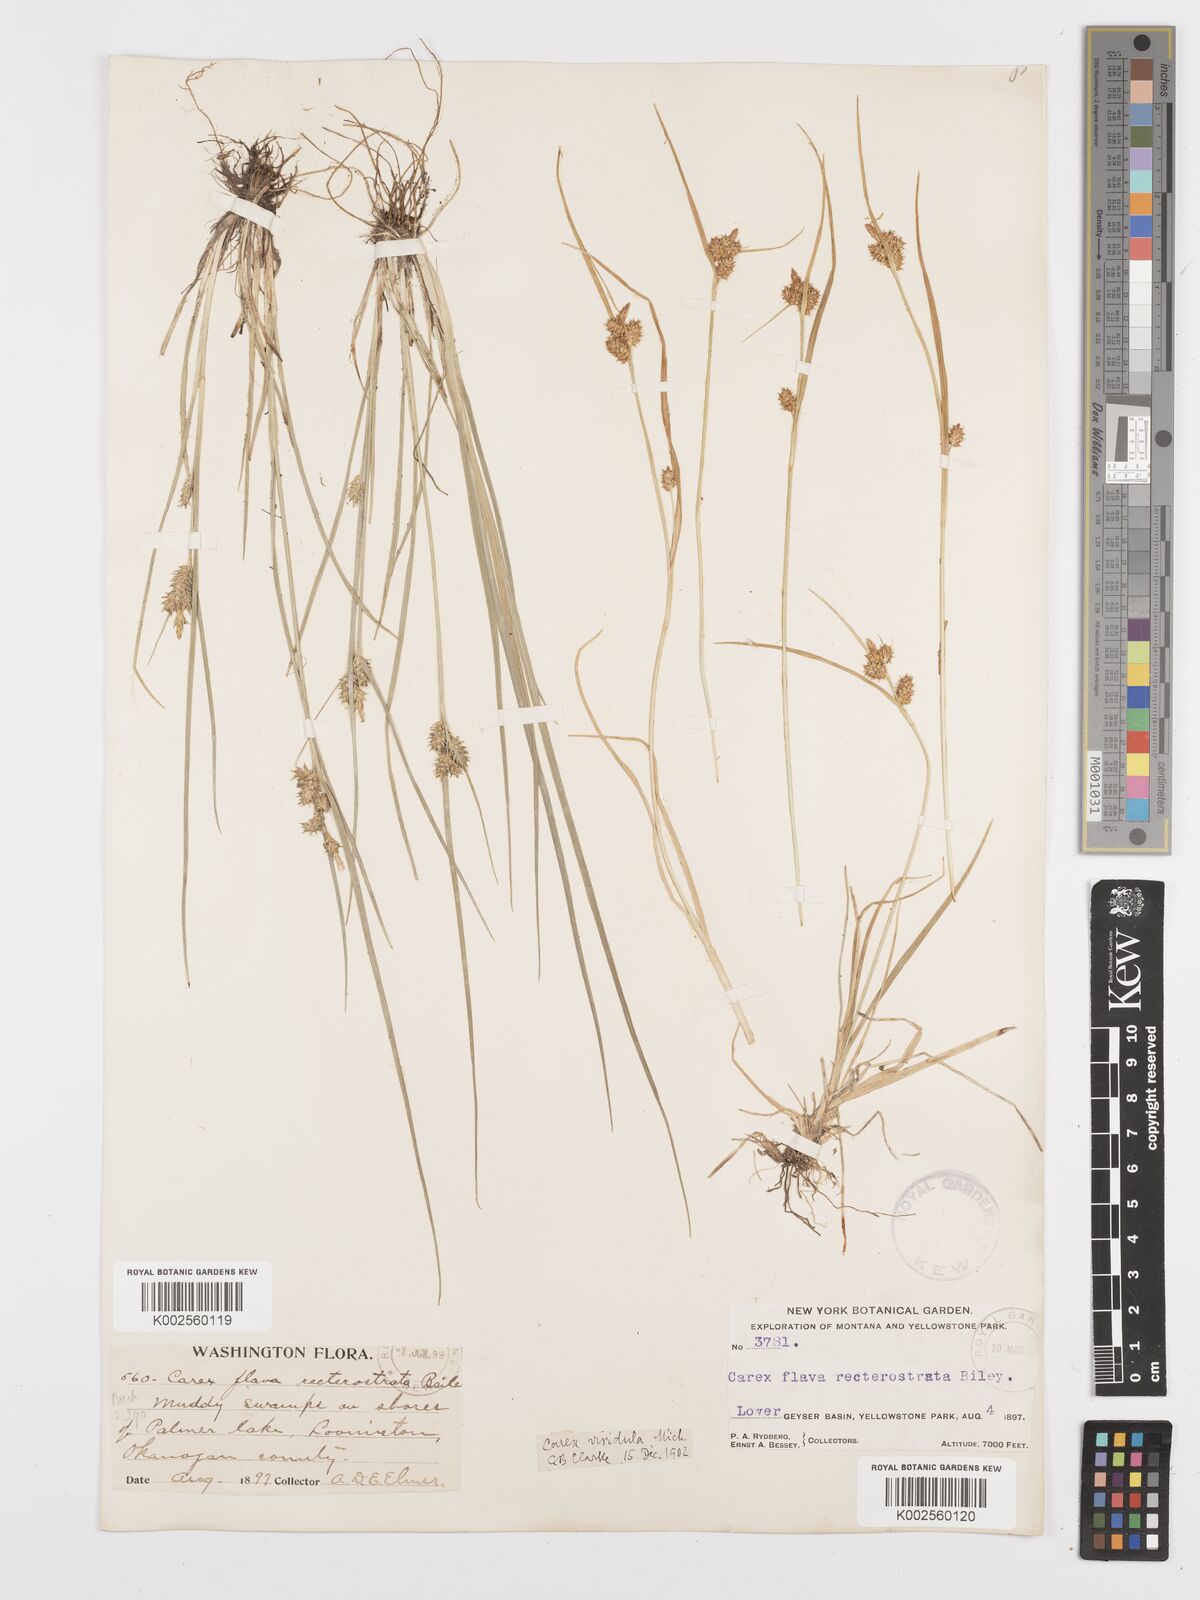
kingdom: Plantae
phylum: Tracheophyta
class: Liliopsida
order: Poales
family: Cyperaceae
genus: Carex
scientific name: Carex oederi
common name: Common & small-fruited yellow-sedge
